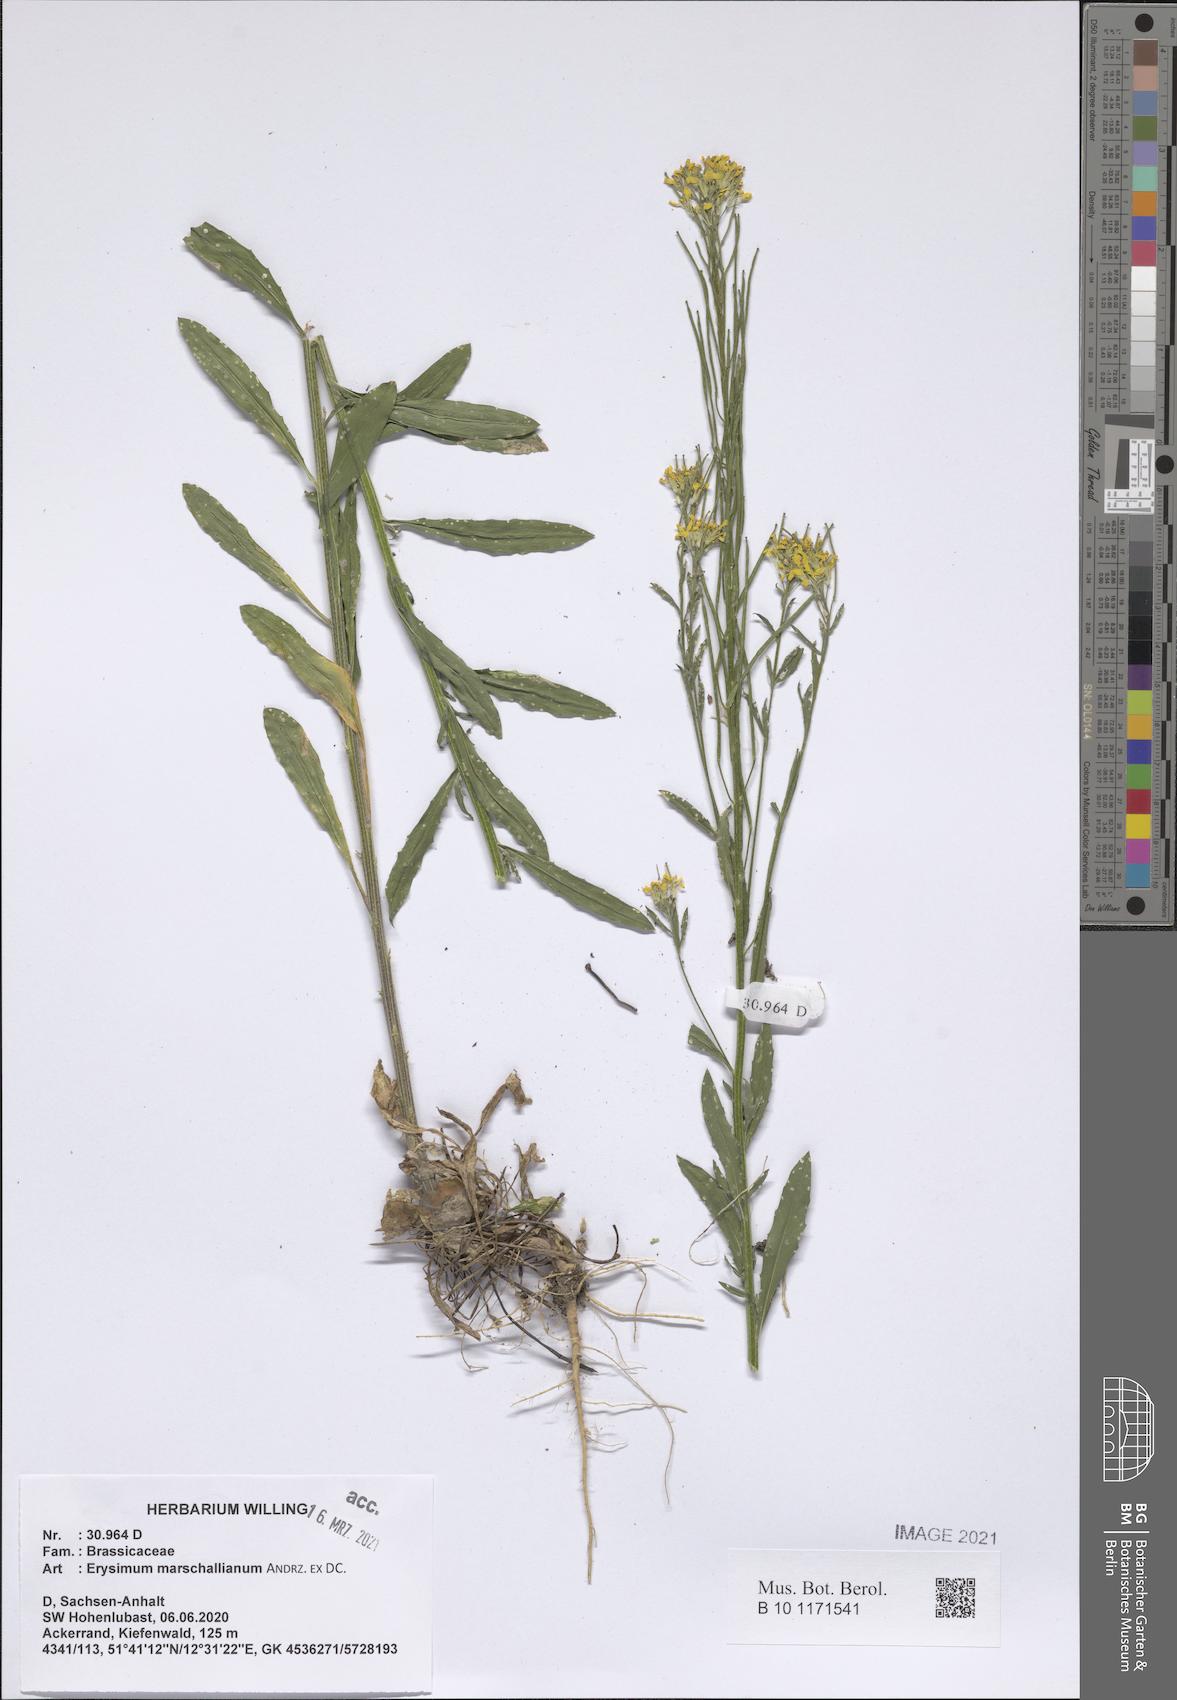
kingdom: Plantae
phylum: Tracheophyta
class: Magnoliopsida
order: Brassicales
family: Brassicaceae
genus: Erysimum
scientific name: Erysimum marschallianum
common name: Hard wallflower
